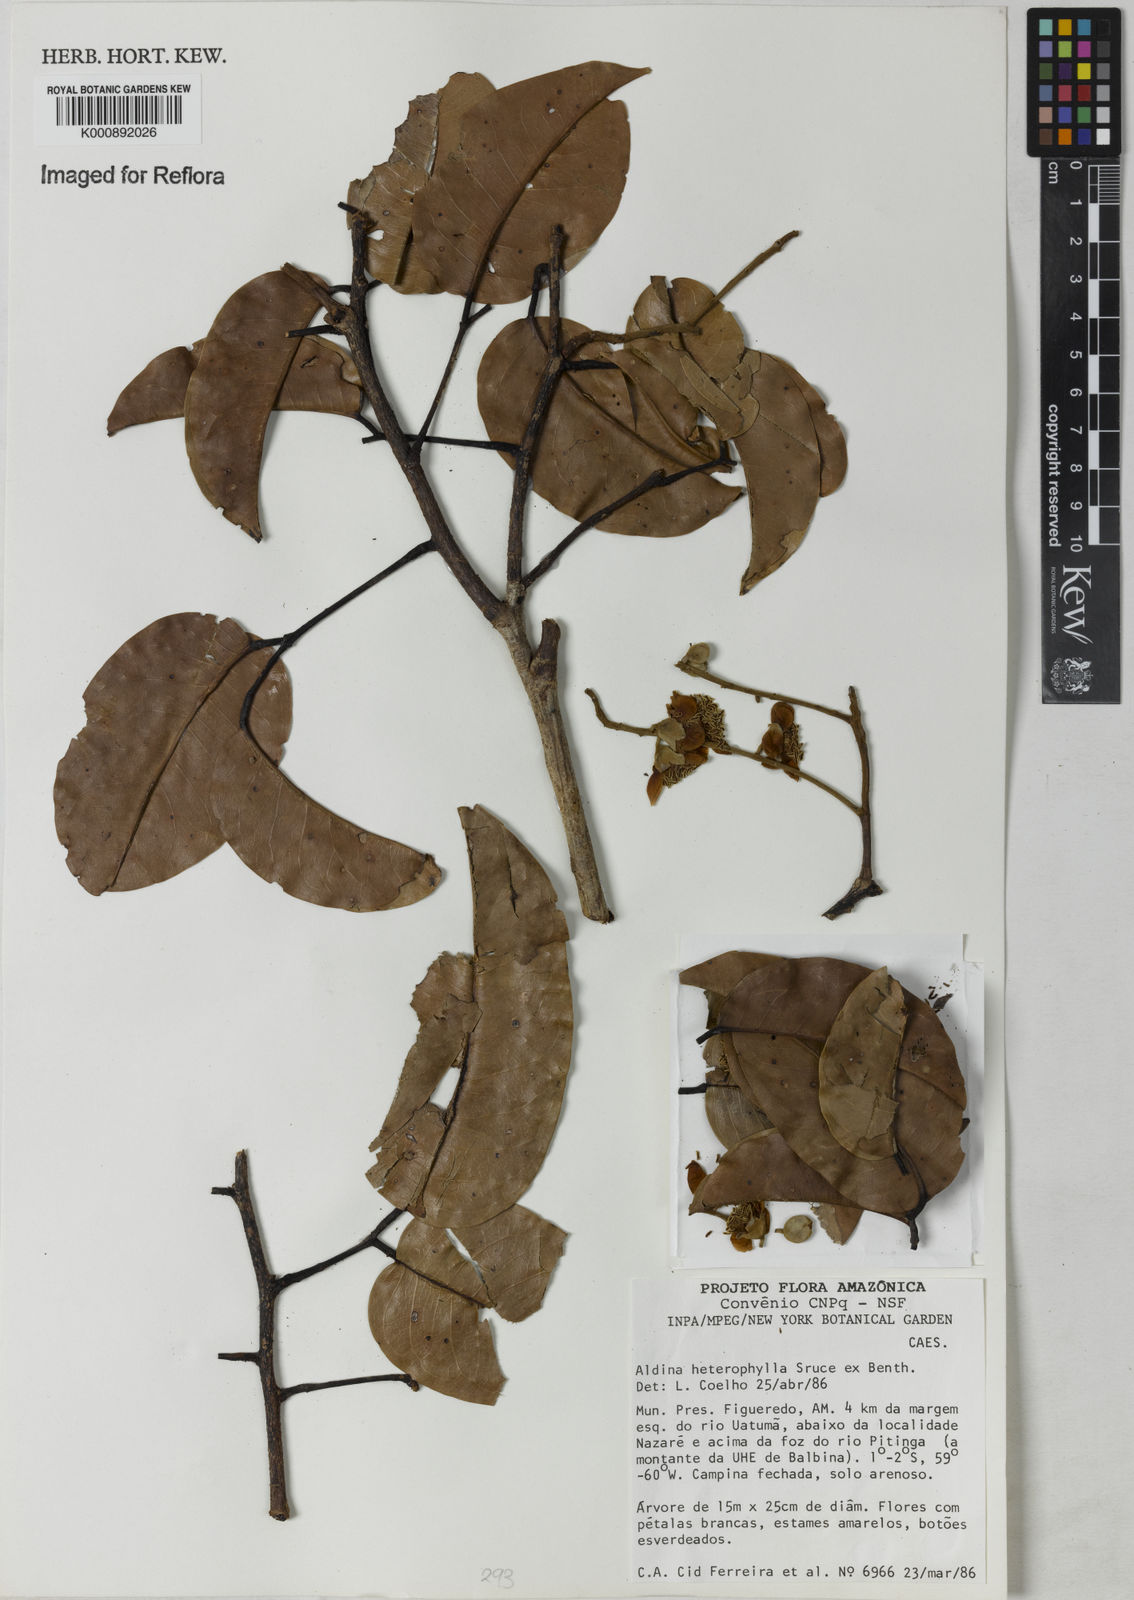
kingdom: Plantae
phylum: Tracheophyta
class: Magnoliopsida
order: Fabales
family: Fabaceae
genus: Aldina
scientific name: Aldina heterophylla
